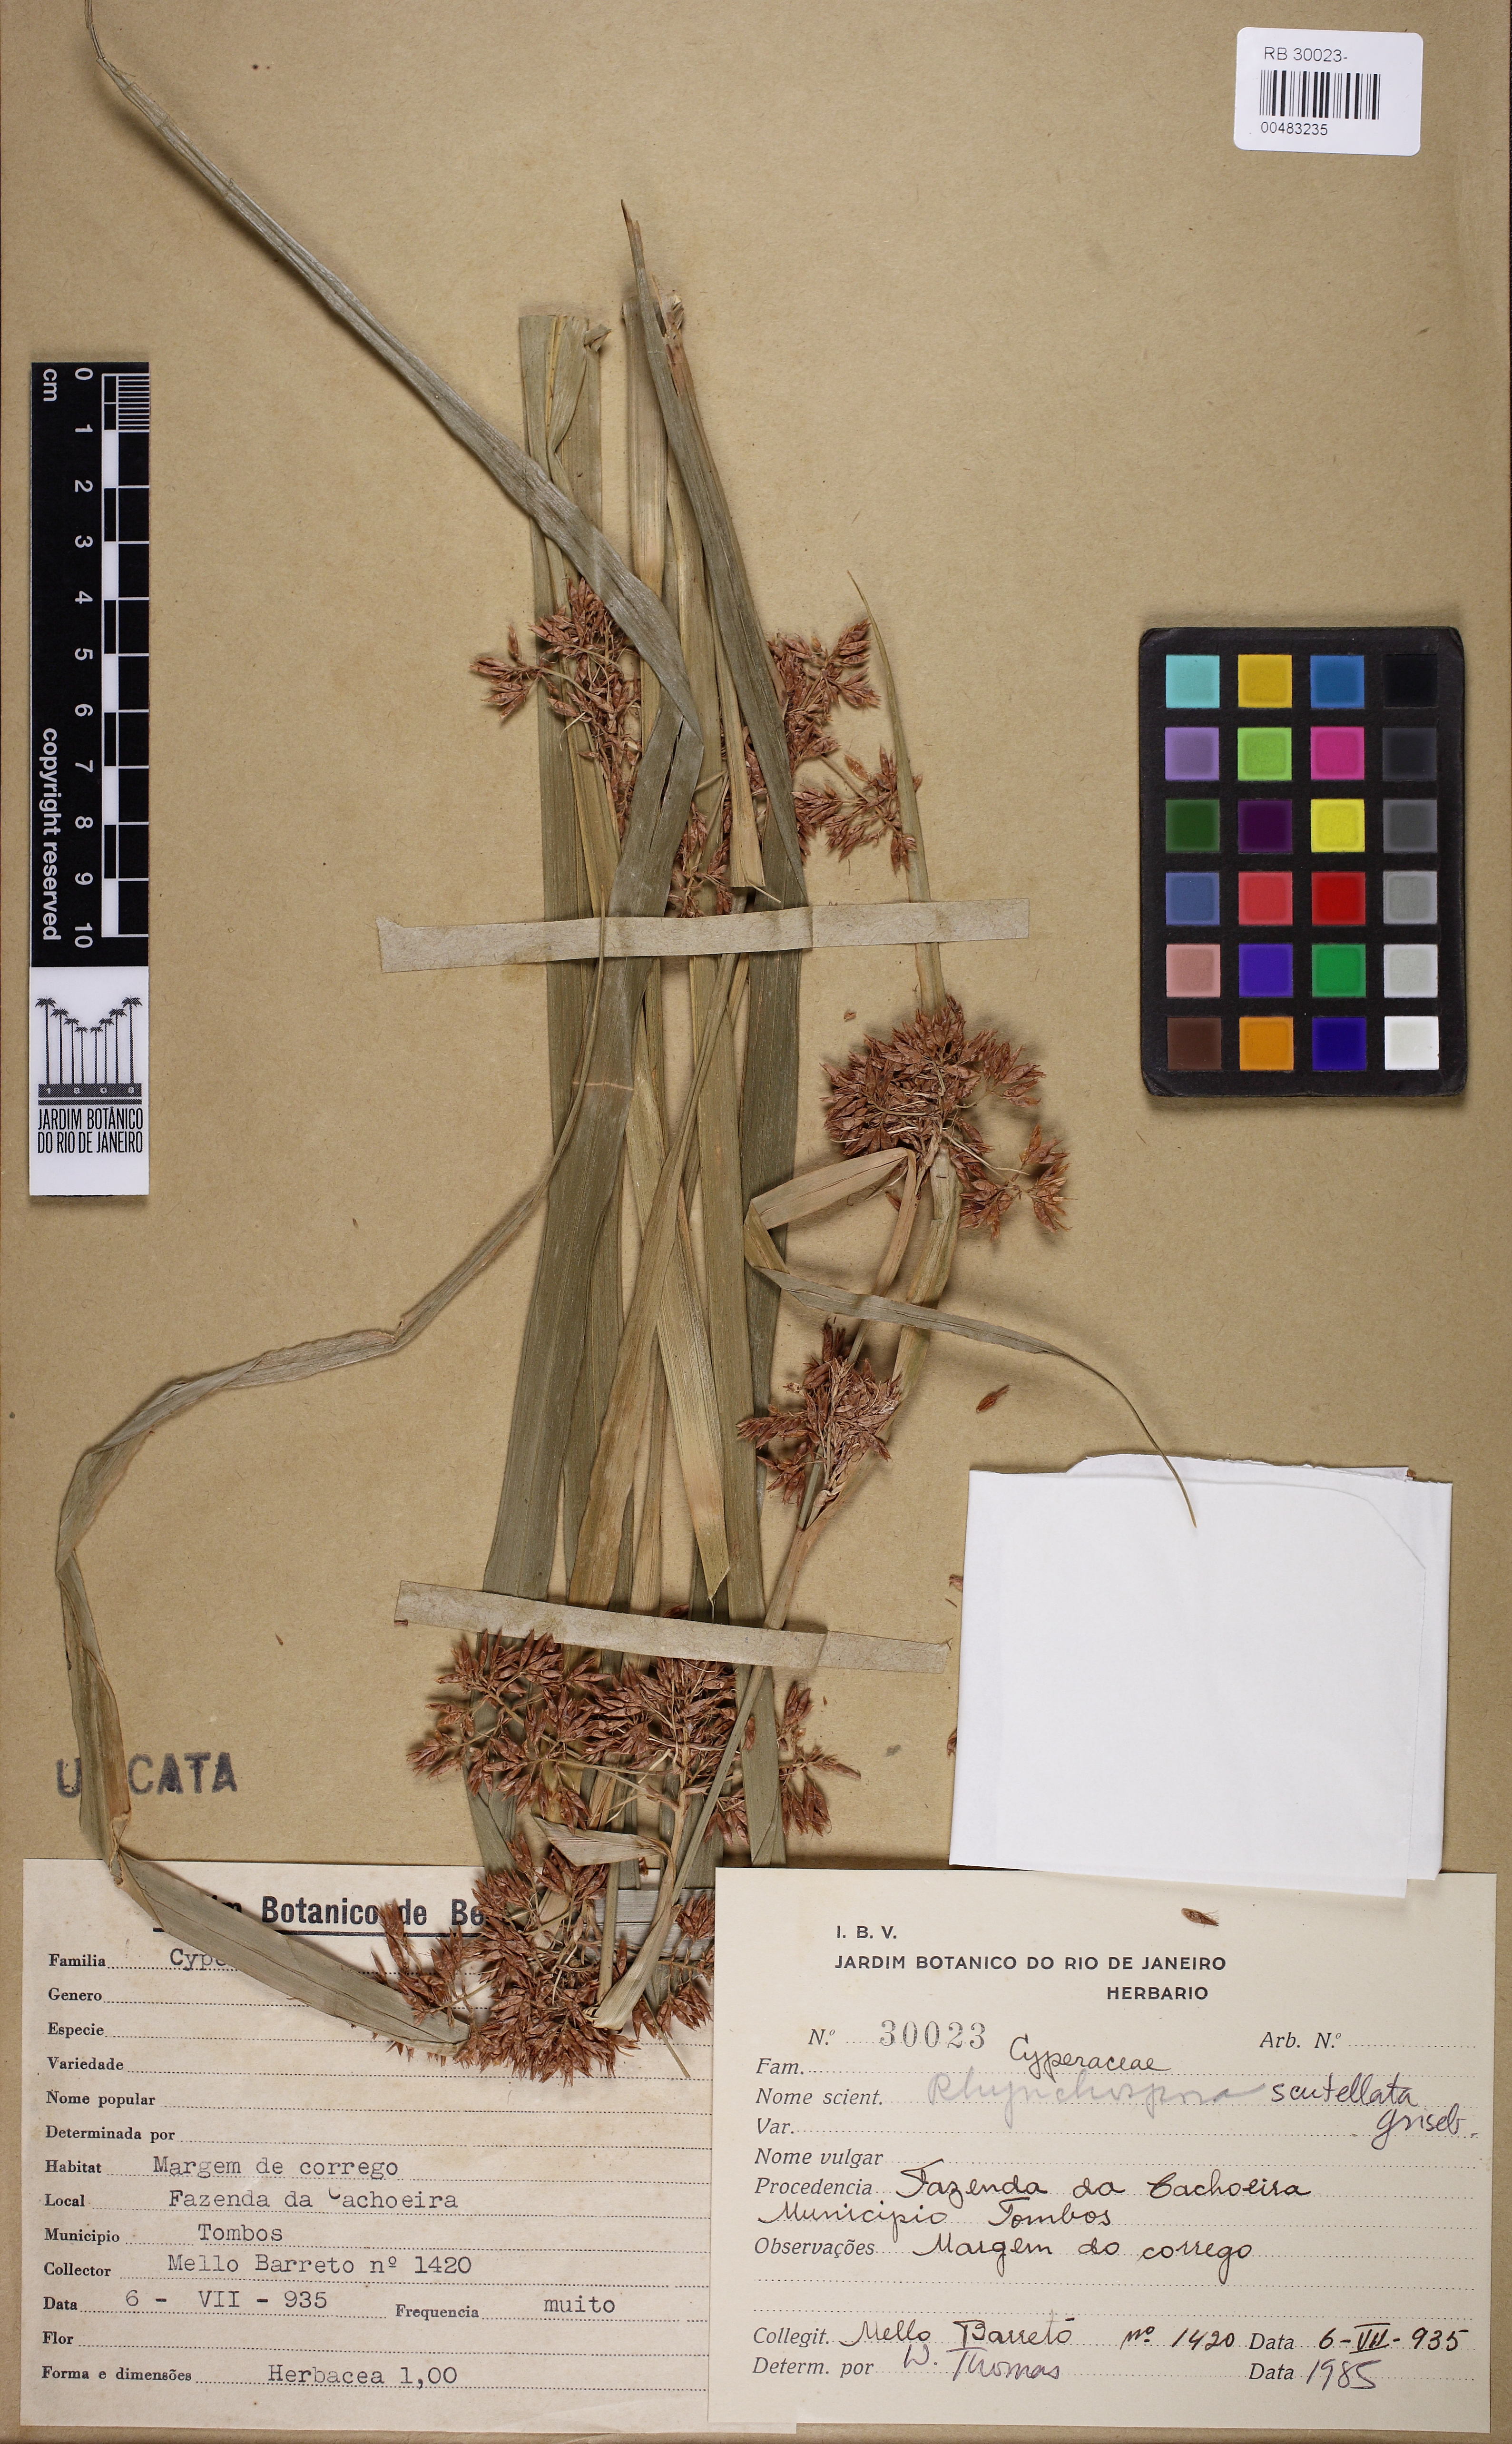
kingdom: Plantae
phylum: Tracheophyta
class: Liliopsida
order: Poales
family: Cyperaceae
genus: Rhynchospora
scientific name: Rhynchospora scutellata
